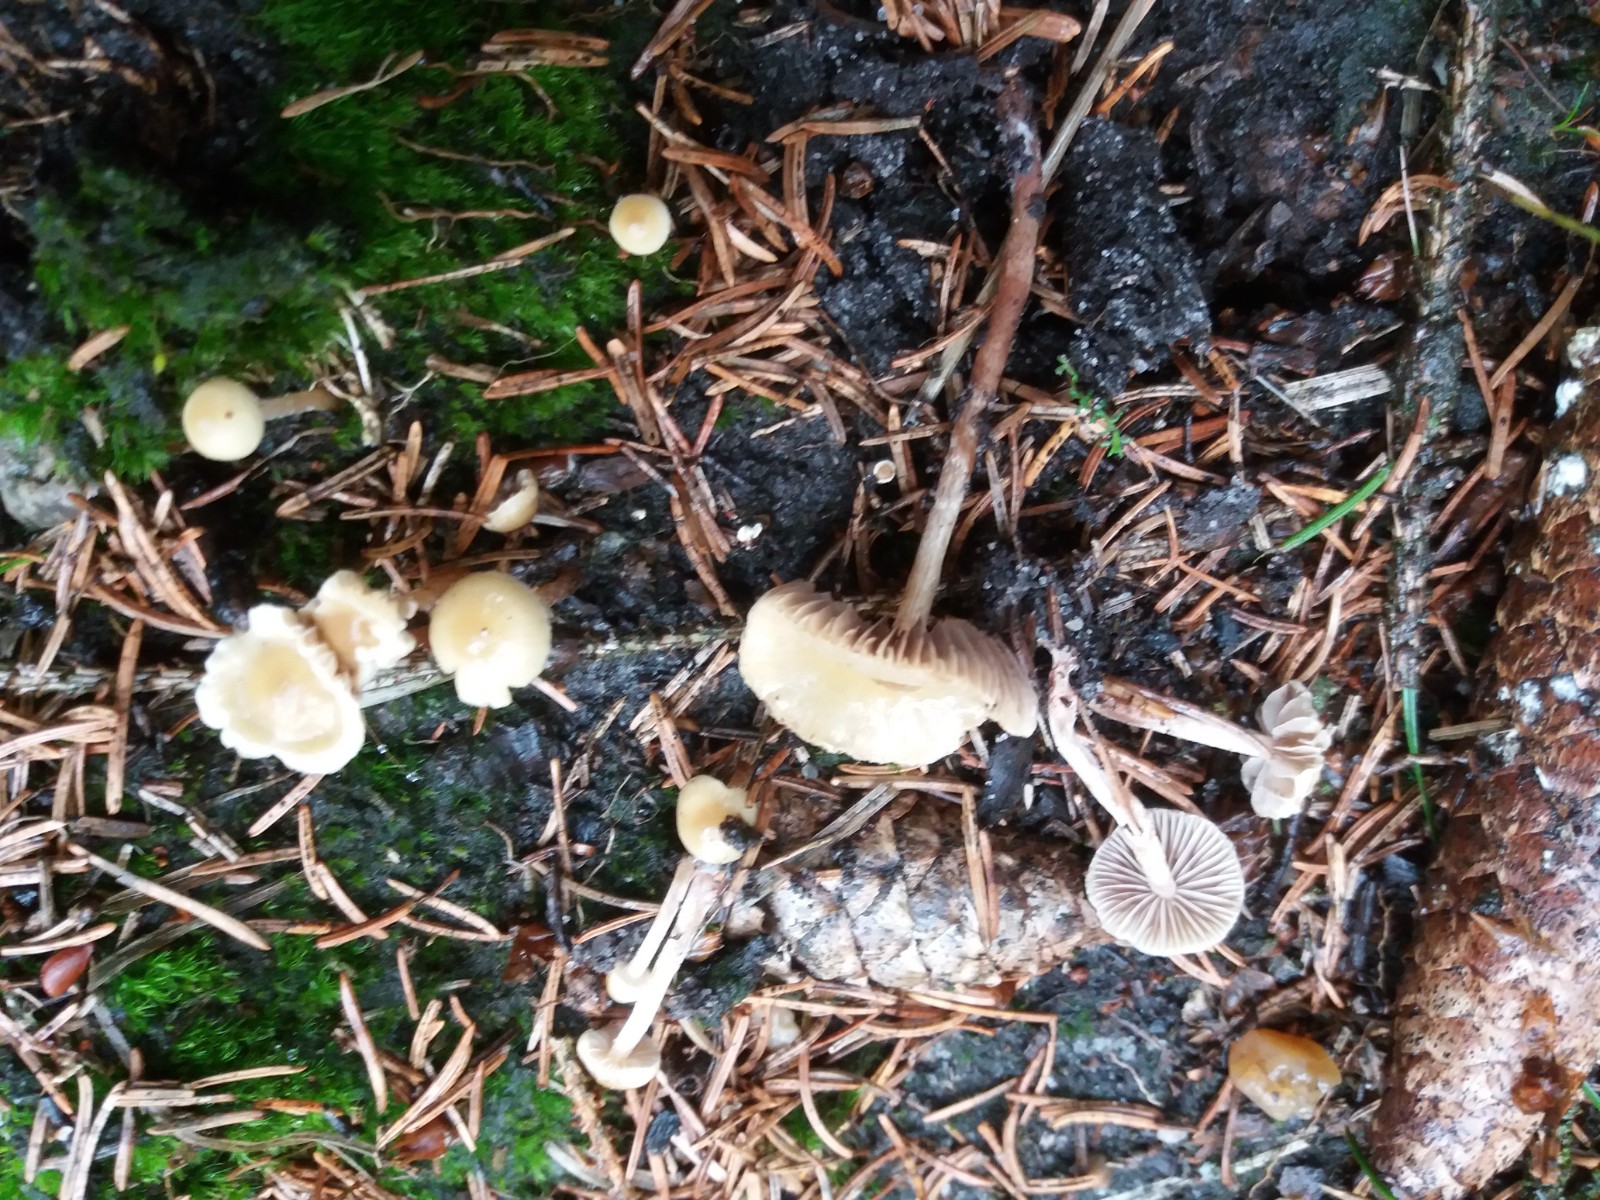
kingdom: Fungi
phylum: Basidiomycota
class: Agaricomycetes
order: Agaricales
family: Strophariaceae
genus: Hypholoma
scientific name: Hypholoma elongatum
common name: slank svovlhat
